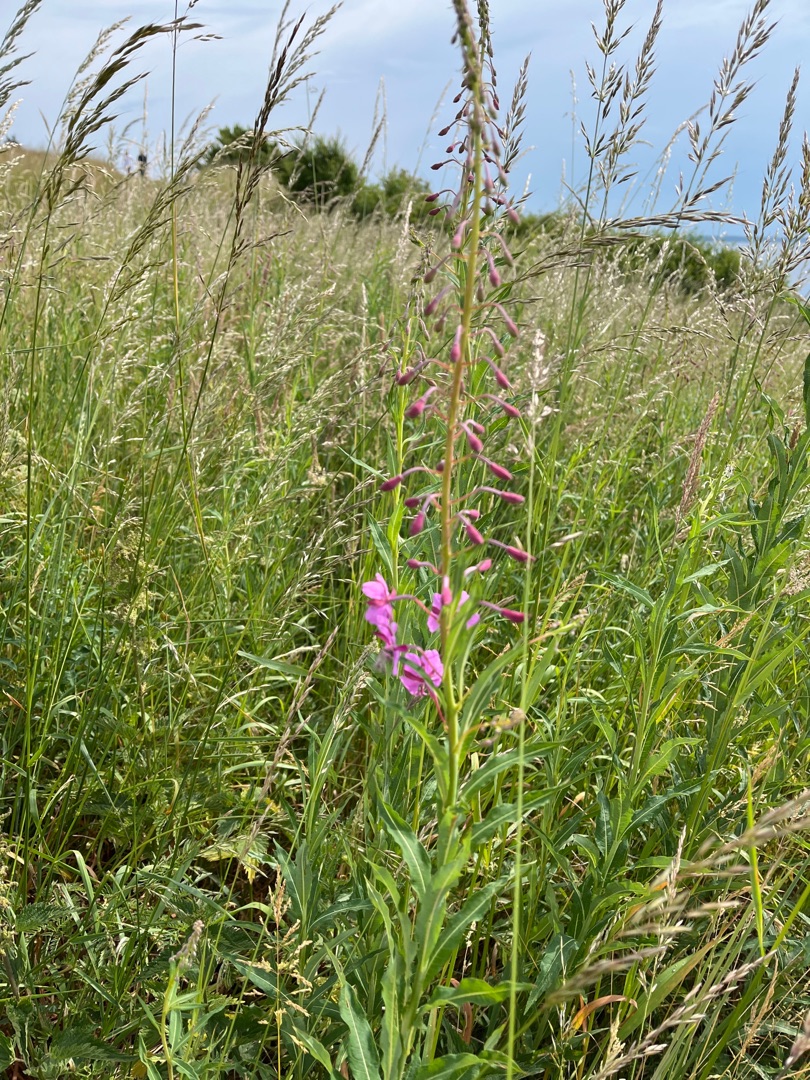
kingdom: Plantae
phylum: Tracheophyta
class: Magnoliopsida
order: Myrtales
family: Onagraceae
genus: Chamaenerion
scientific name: Chamaenerion angustifolium
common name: Gederams
